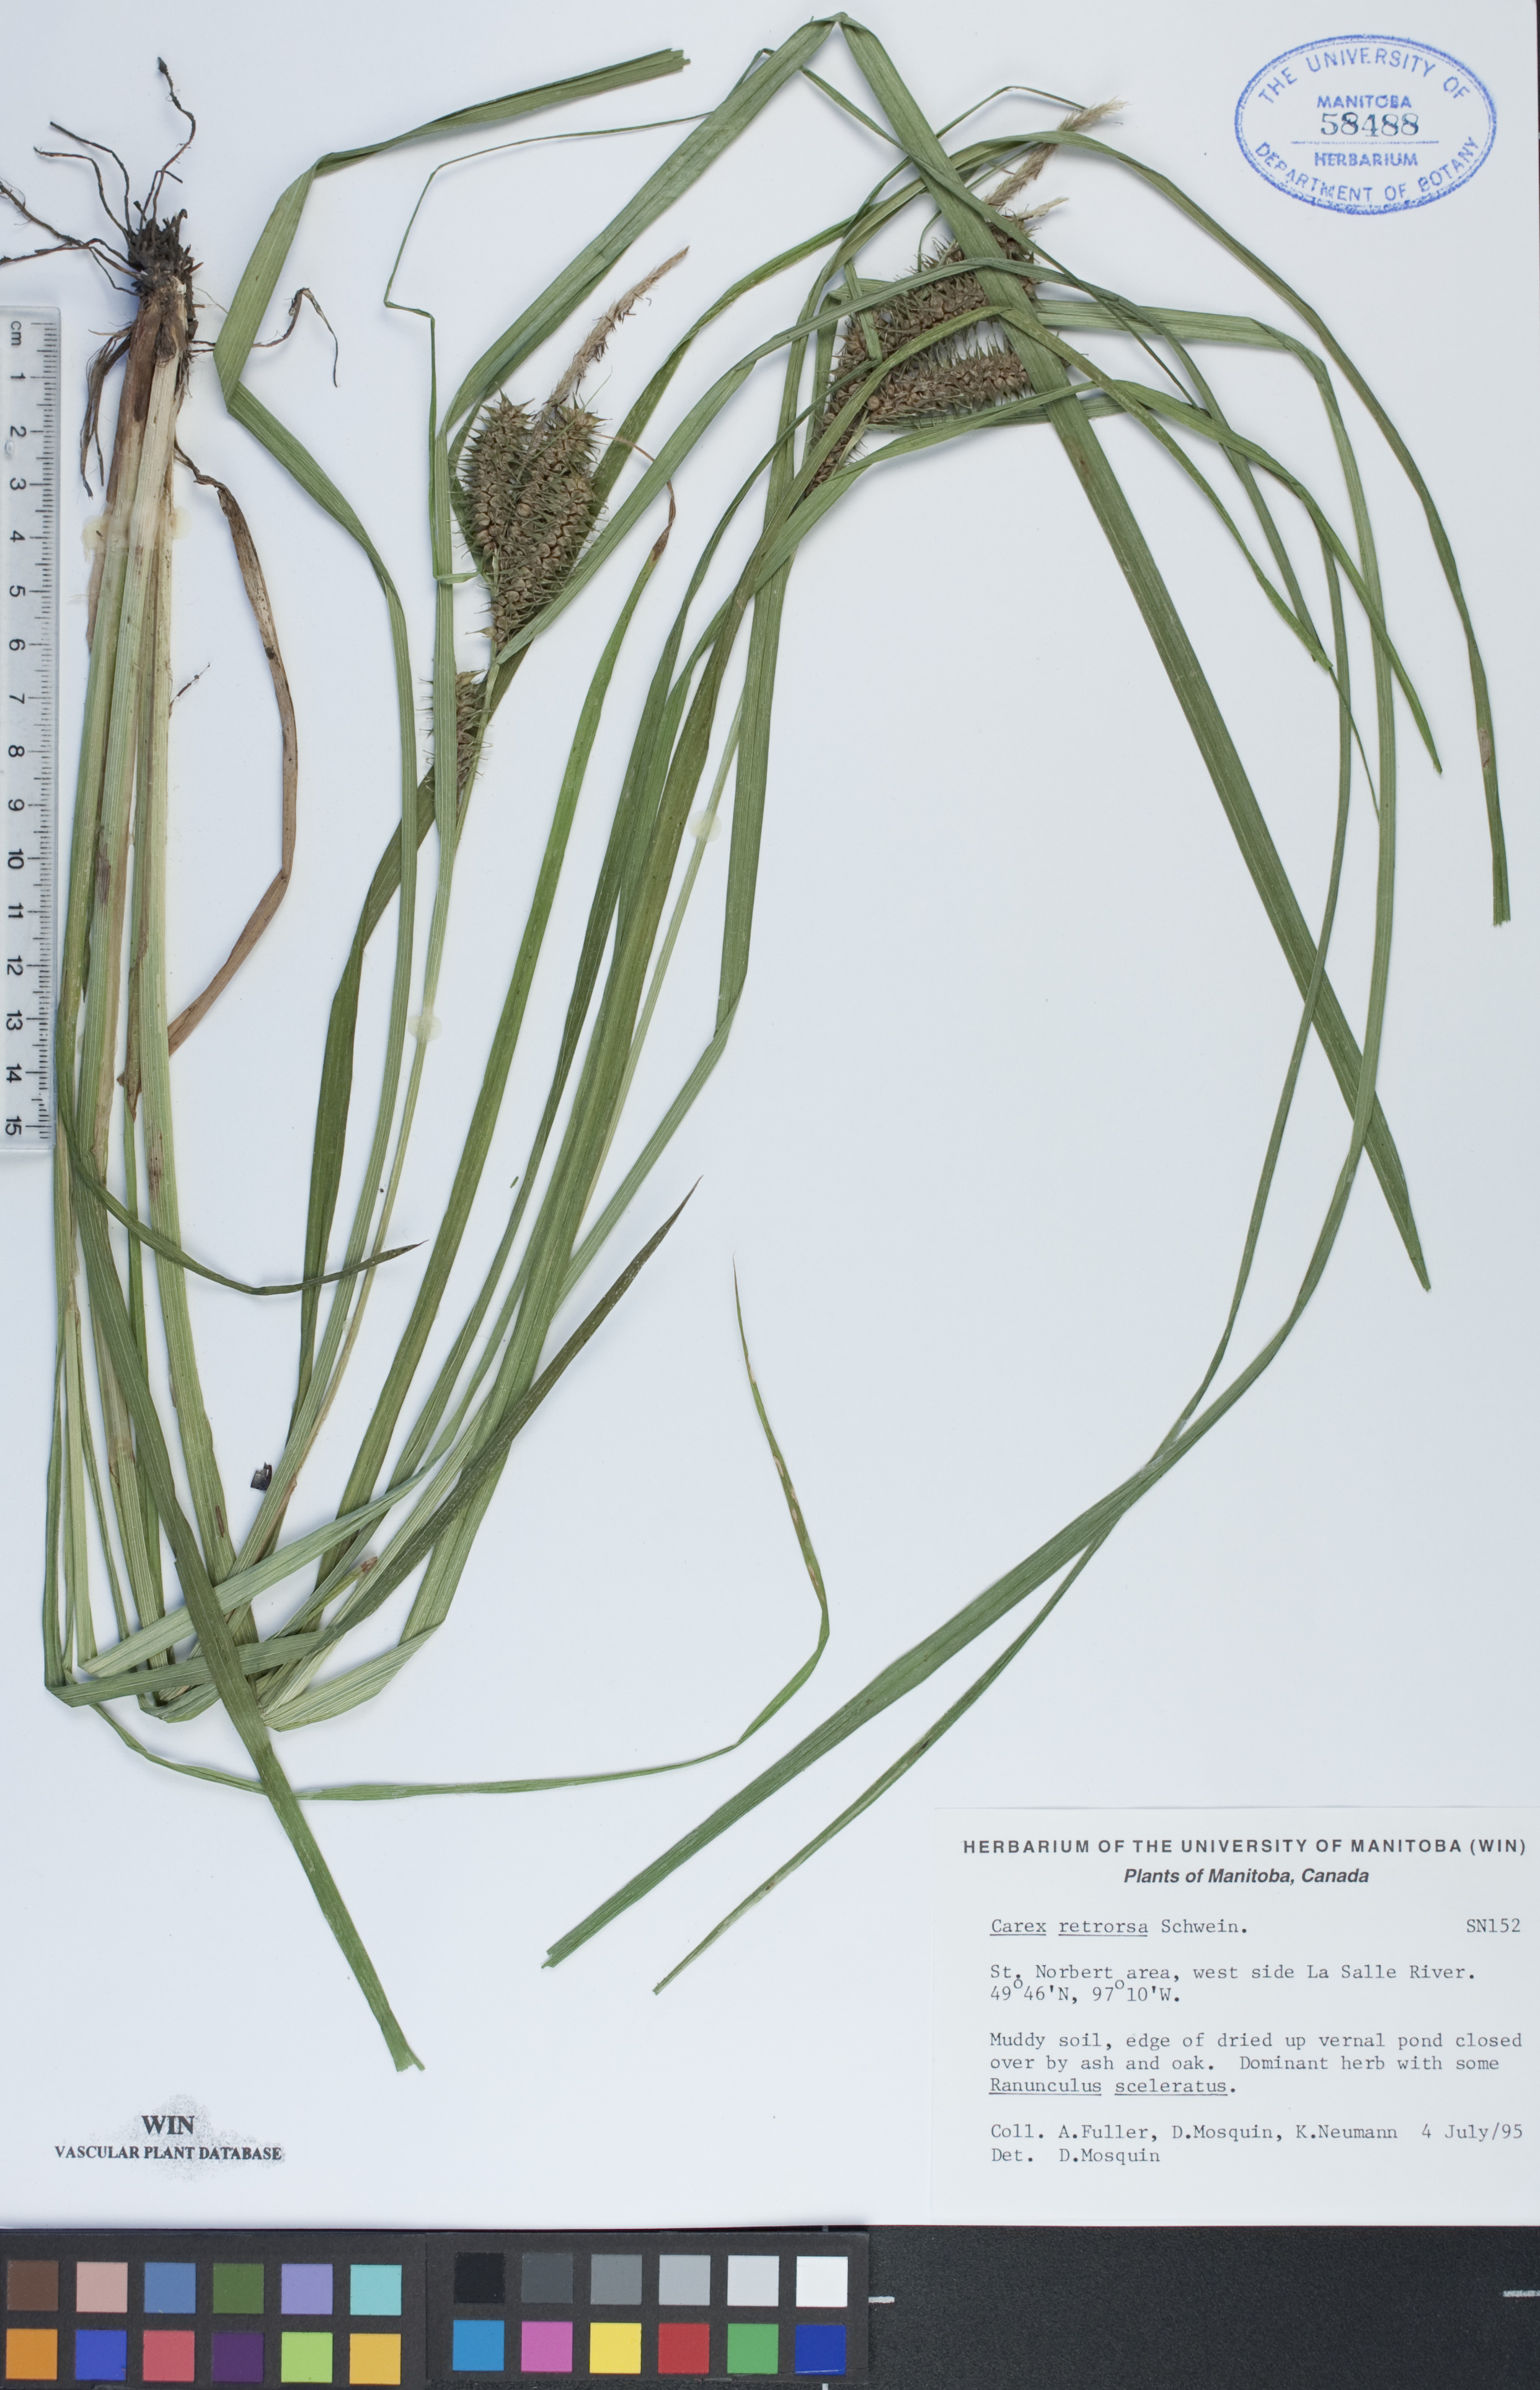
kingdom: Plantae
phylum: Tracheophyta
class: Liliopsida
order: Poales
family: Cyperaceae
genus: Carex
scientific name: Carex retrorsa
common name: Knot-sheath sedge
